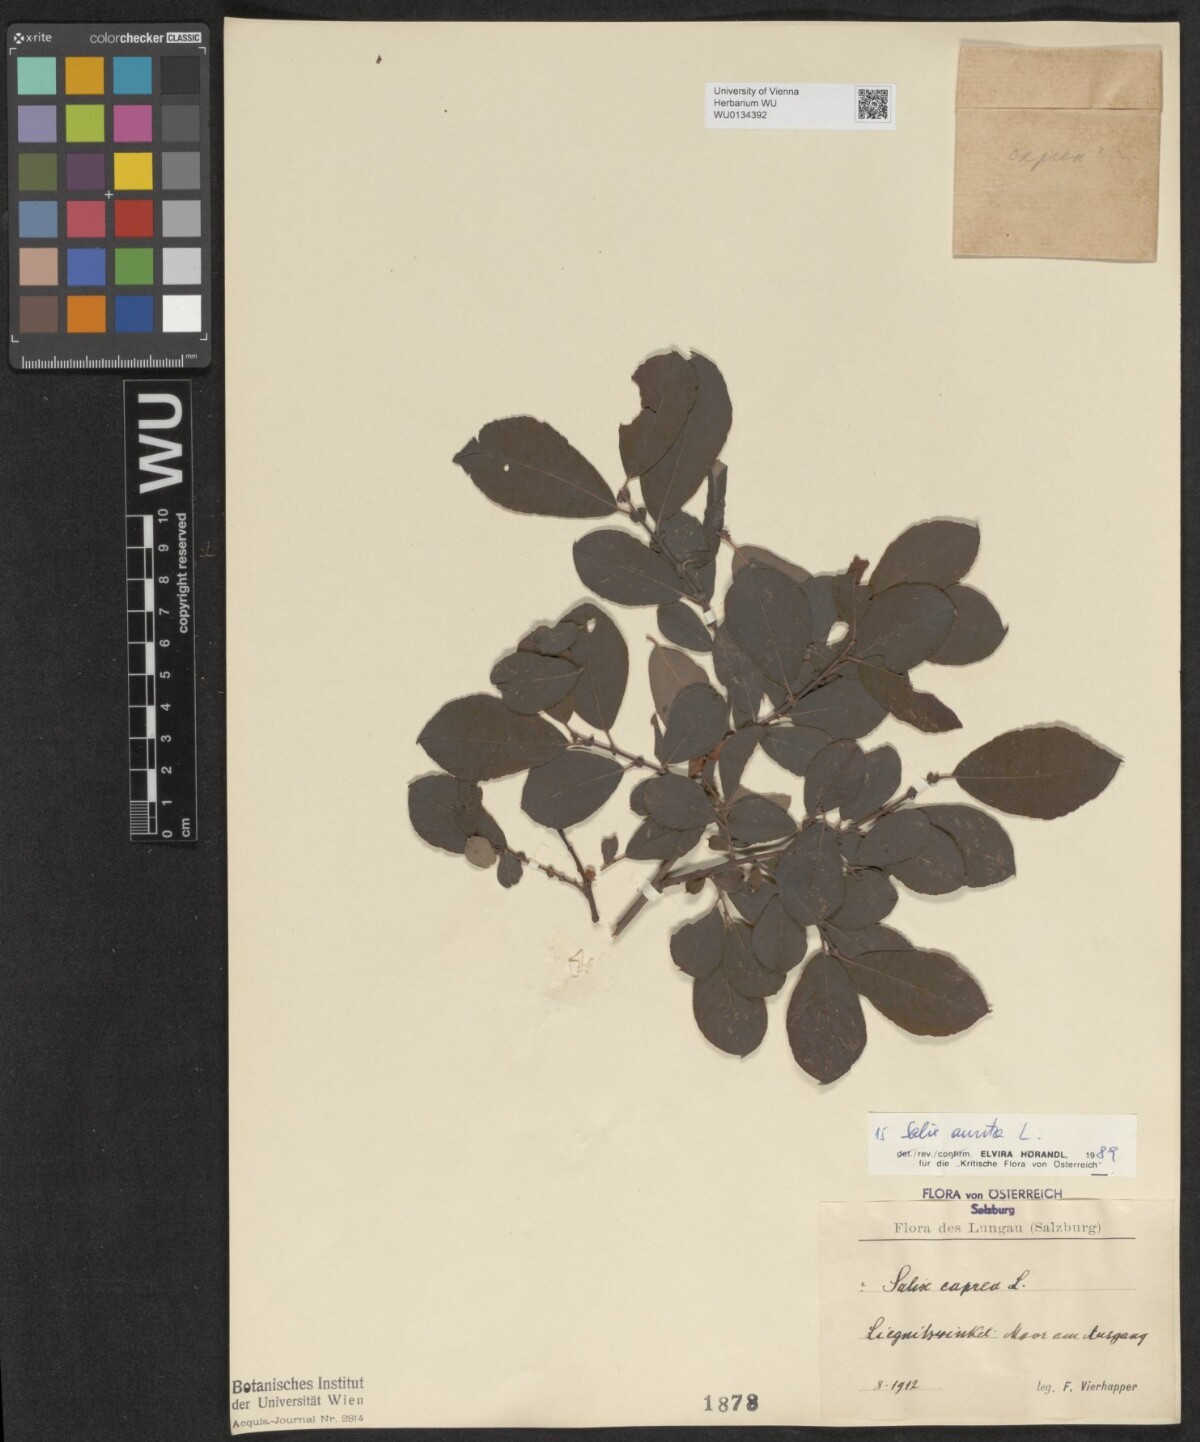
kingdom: Plantae
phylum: Tracheophyta
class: Magnoliopsida
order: Malpighiales
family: Salicaceae
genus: Salix
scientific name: Salix aurita
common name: Eared willow
